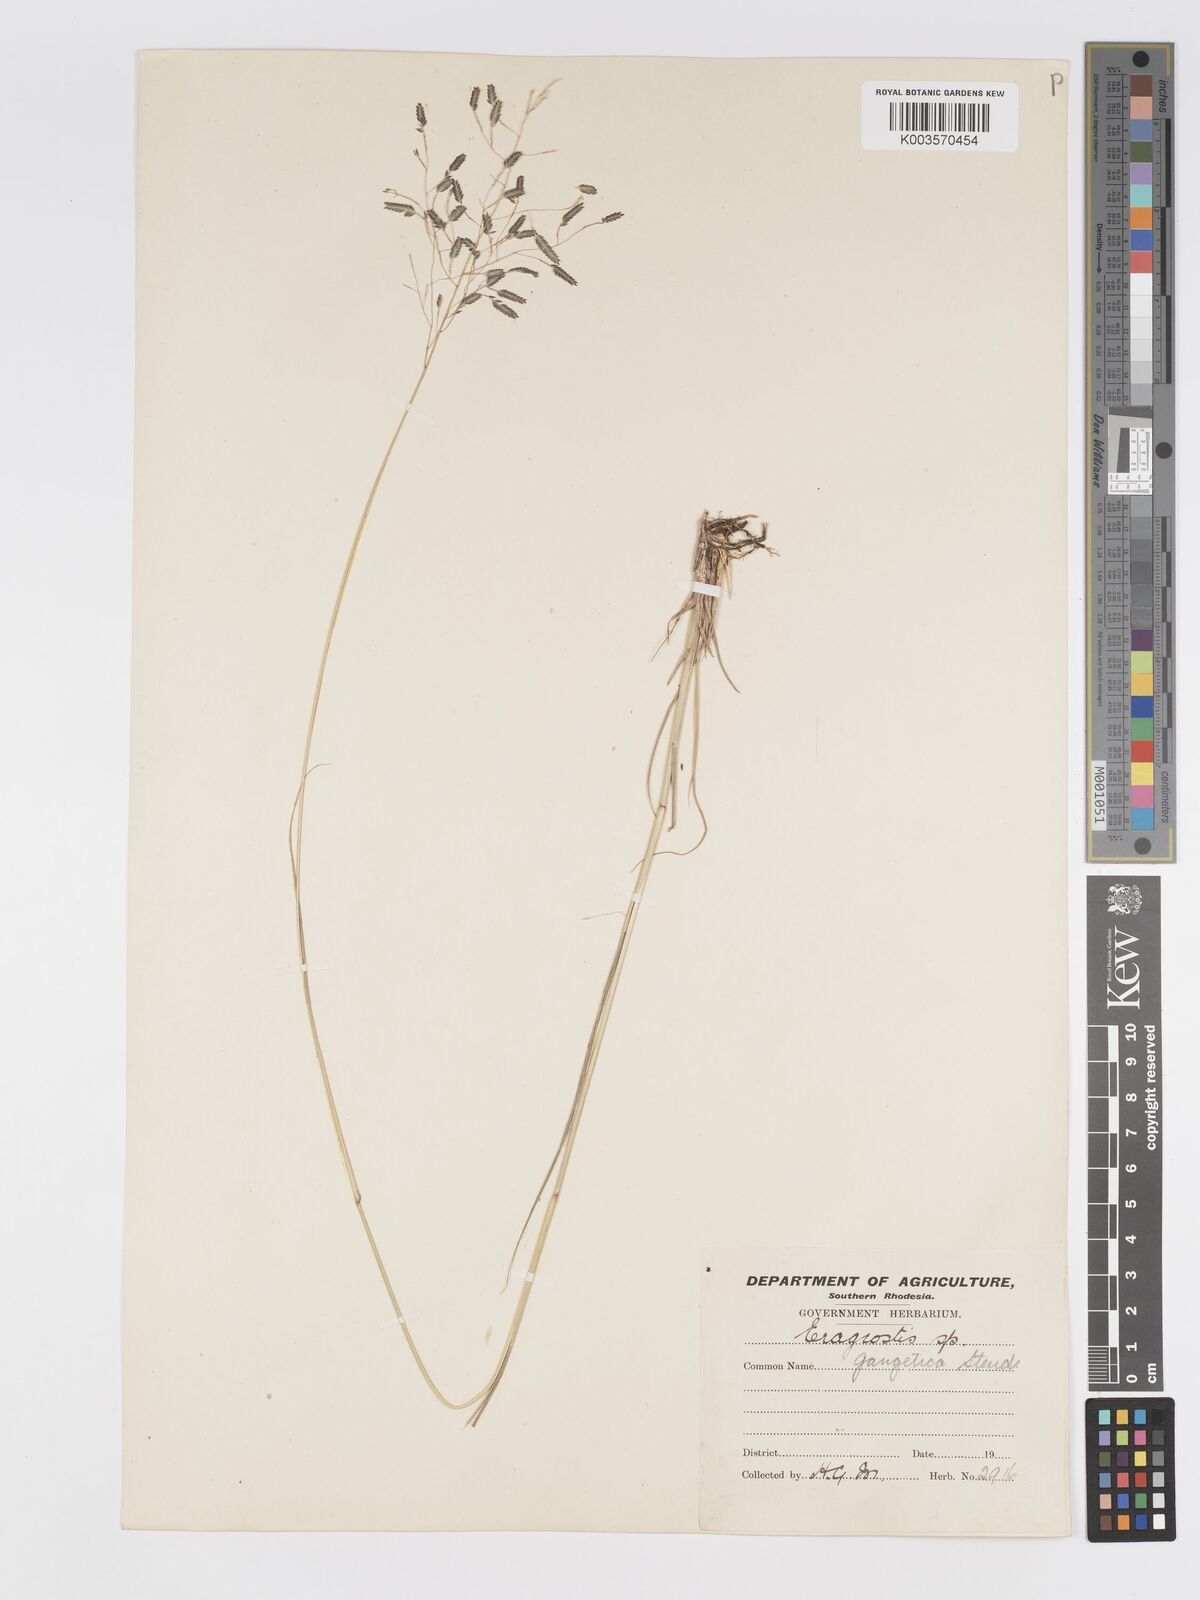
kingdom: Plantae
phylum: Tracheophyta
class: Liliopsida
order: Poales
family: Poaceae
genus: Eragrostis
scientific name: Eragrostis inamoena
